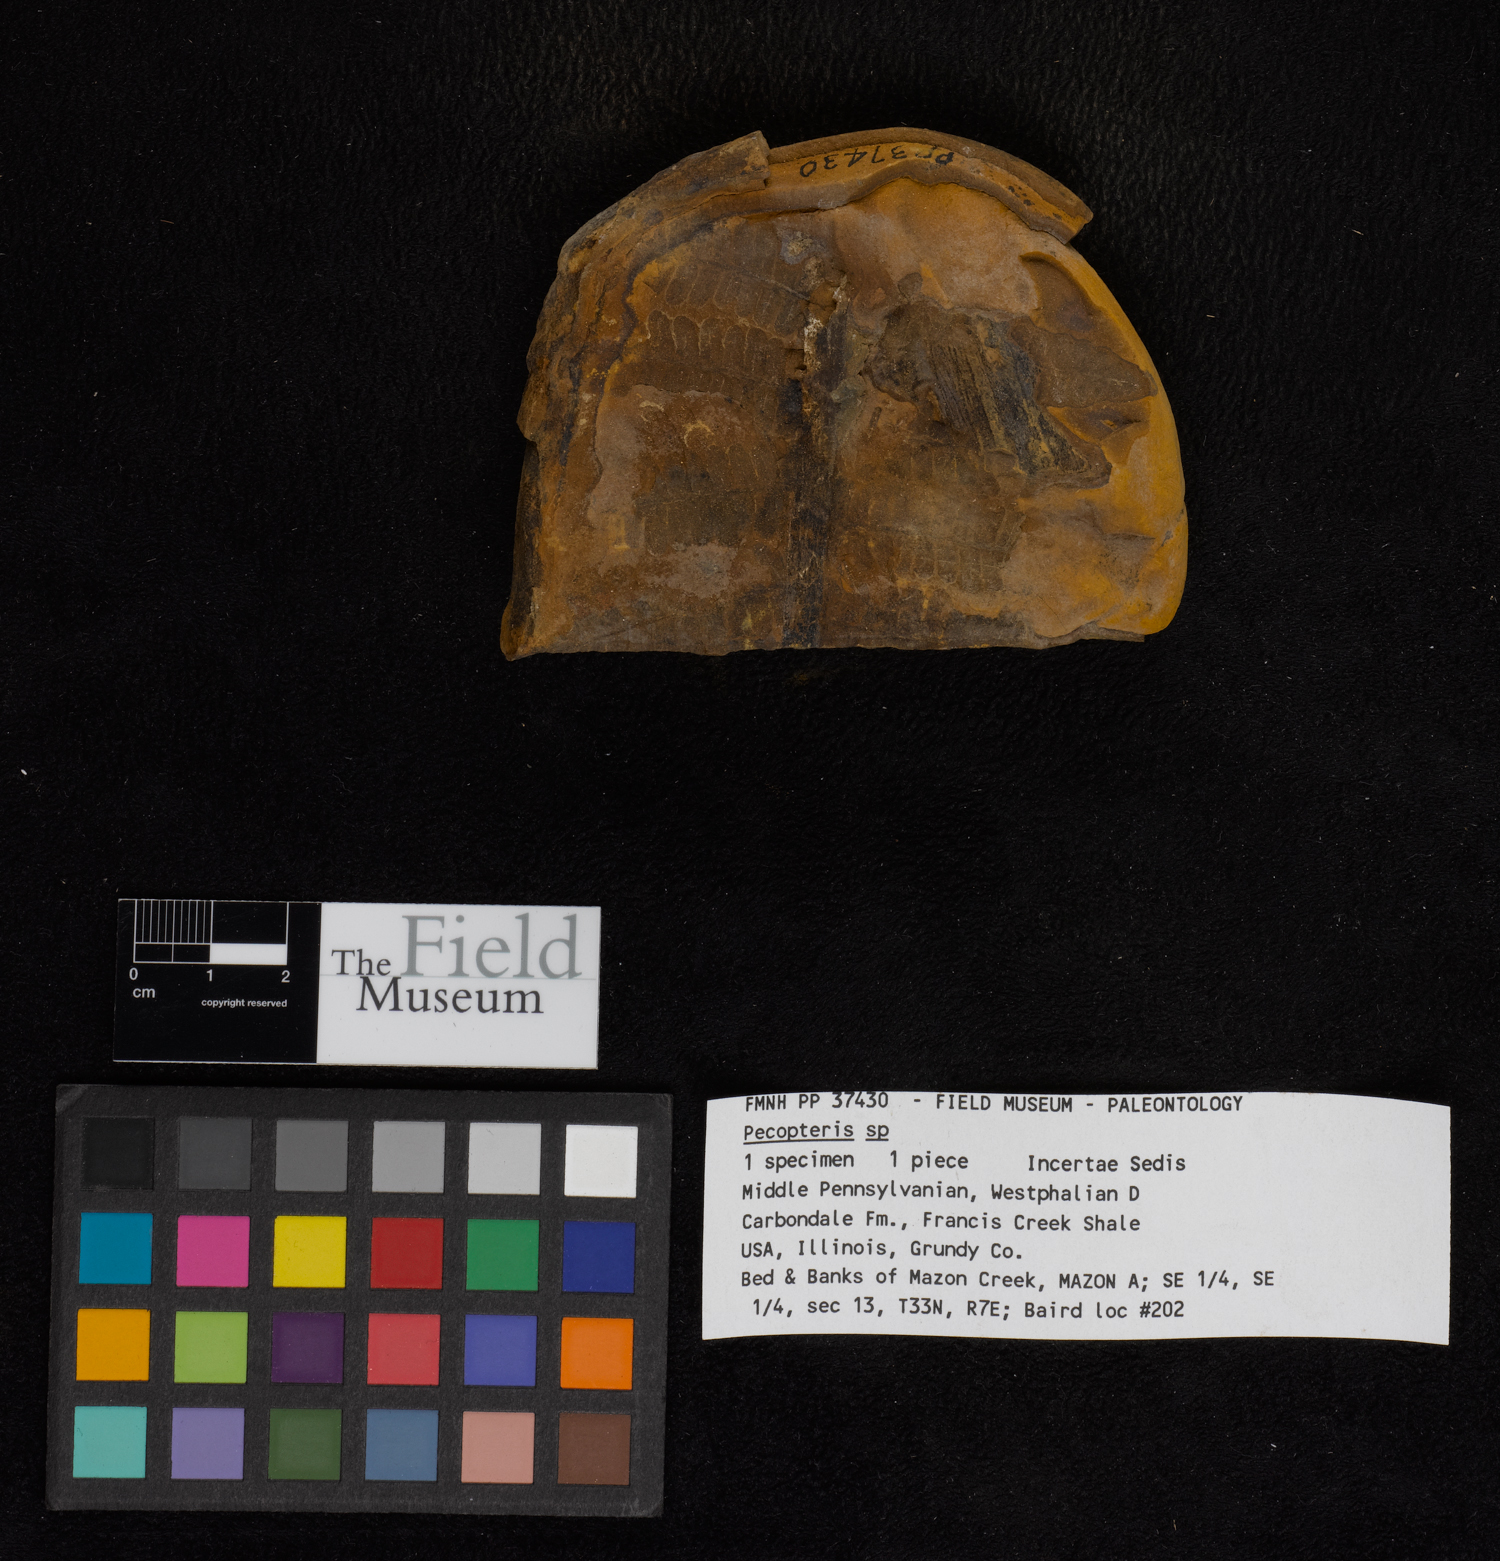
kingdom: Plantae
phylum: Tracheophyta
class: Polypodiopsida
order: Marattiales
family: Asterothecaceae
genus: Pecopteris
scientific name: Pecopteris
